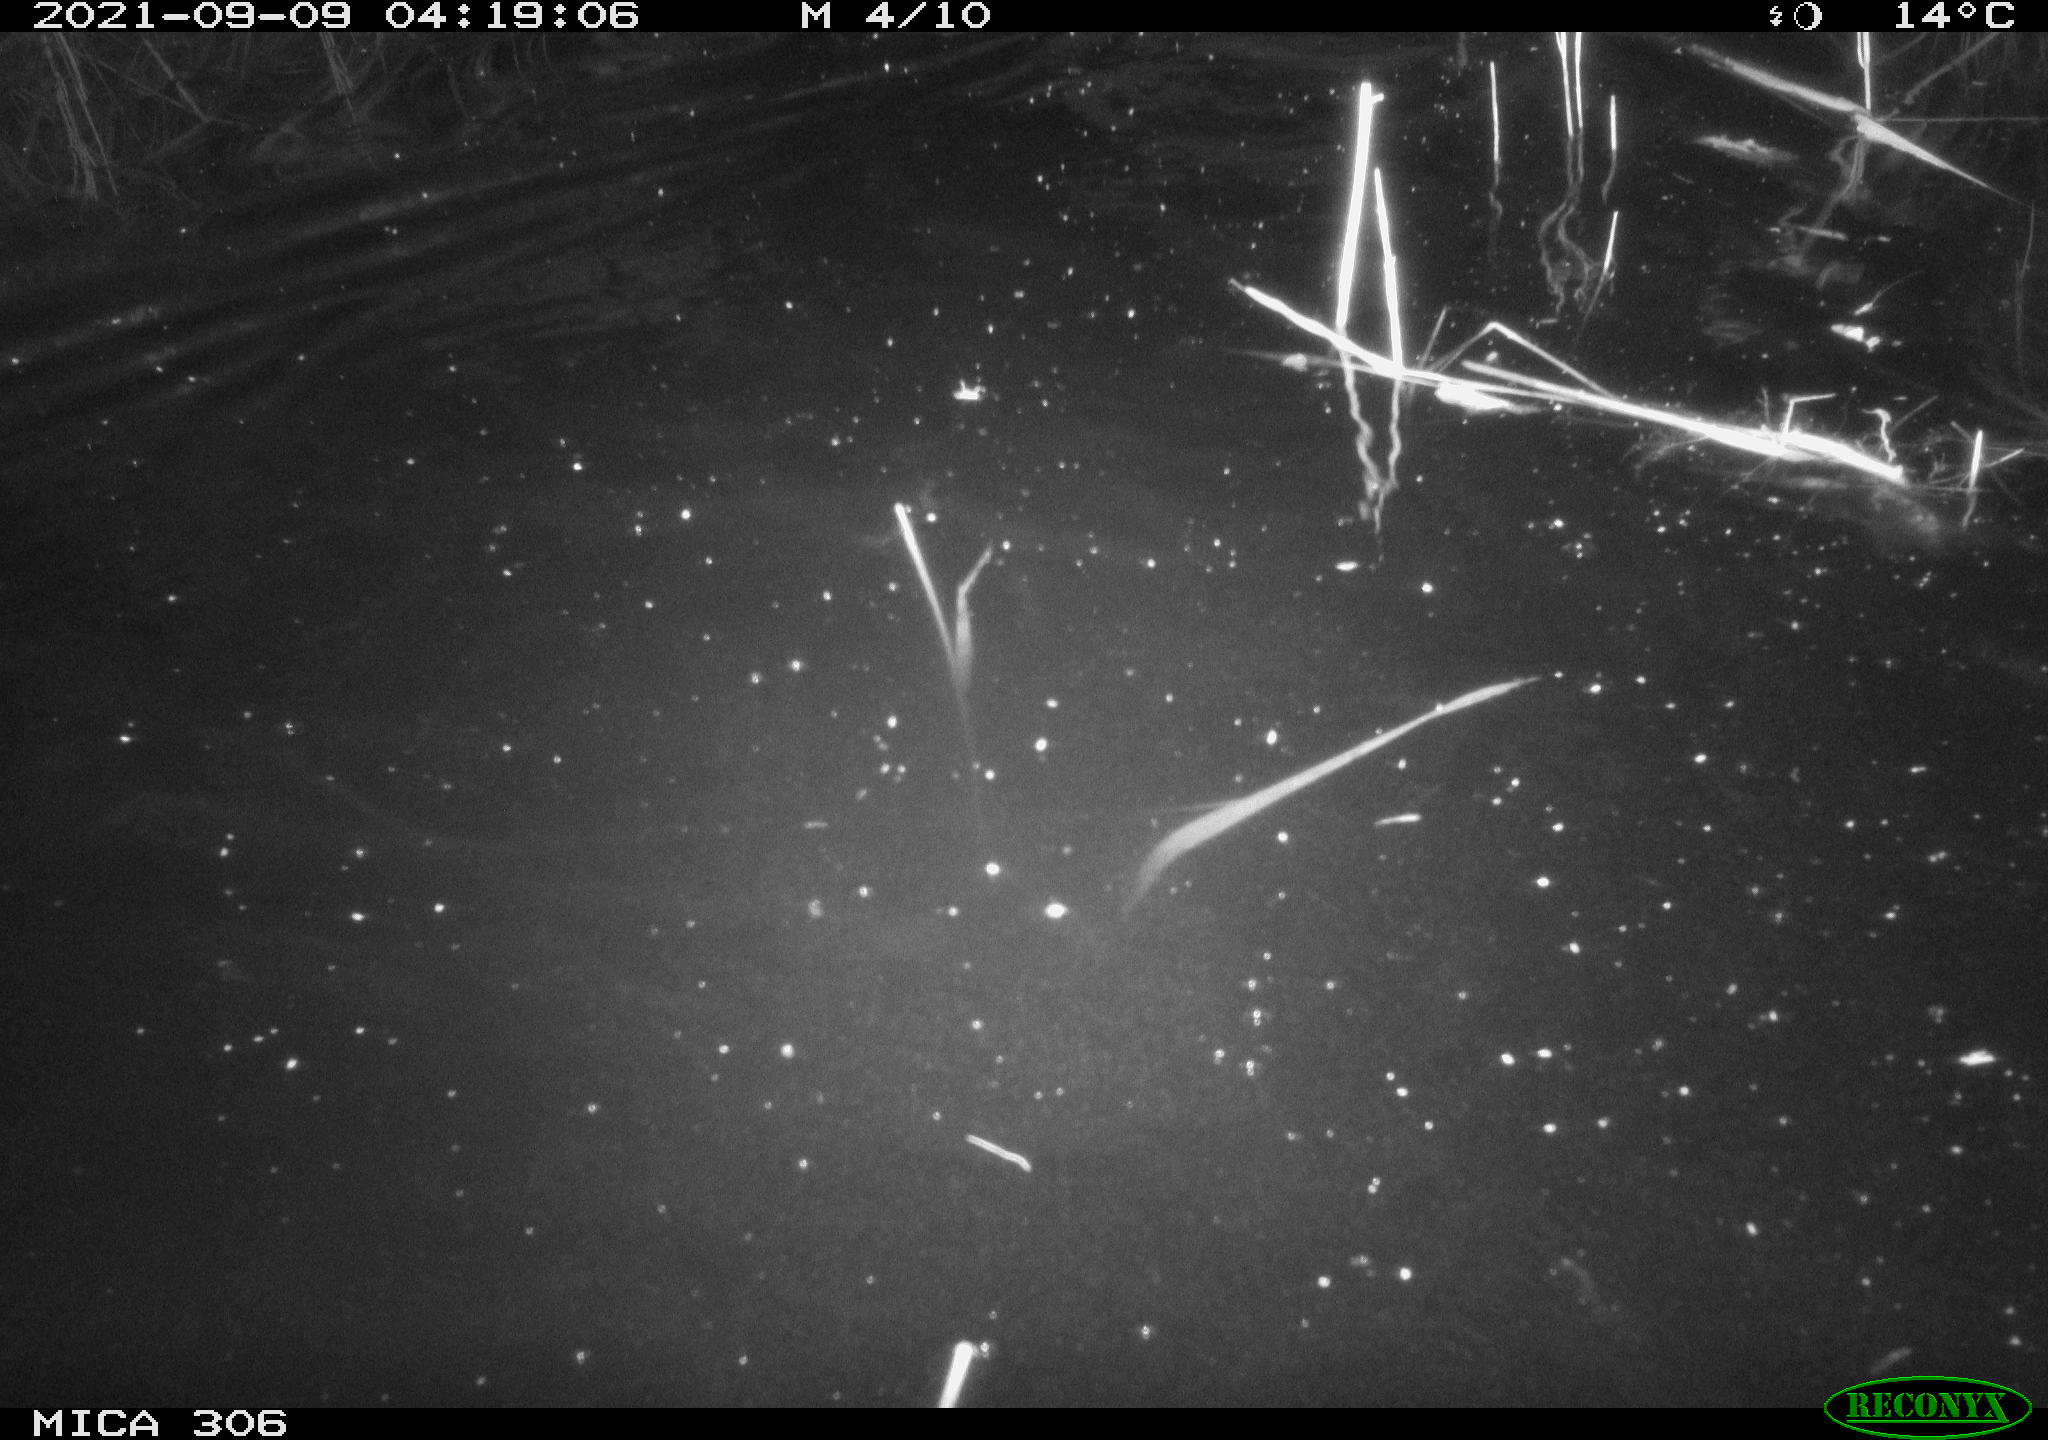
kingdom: Animalia
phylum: Chordata
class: Mammalia
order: Rodentia
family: Cricetidae
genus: Ondatra
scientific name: Ondatra zibethicus
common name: Muskrat
